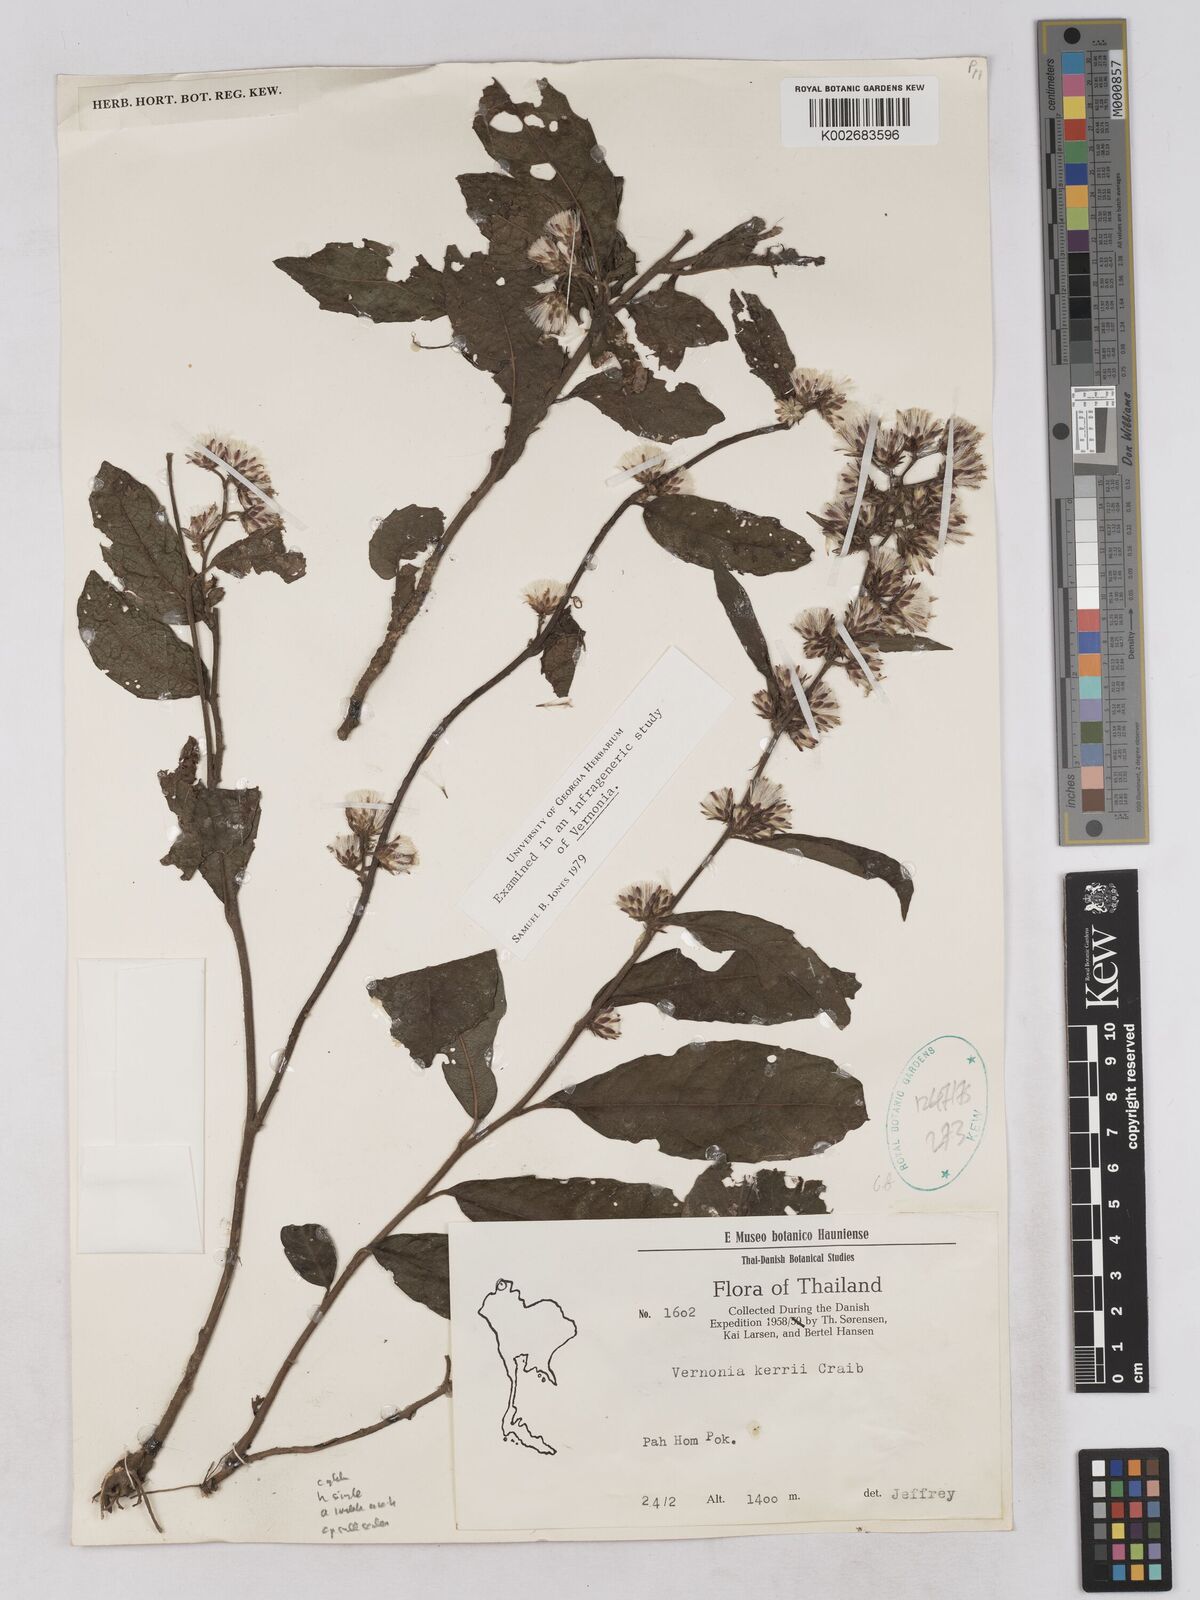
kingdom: Plantae
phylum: Tracheophyta
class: Magnoliopsida
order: Asterales
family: Asteraceae
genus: Acilepis
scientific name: Acilepis kerrii
